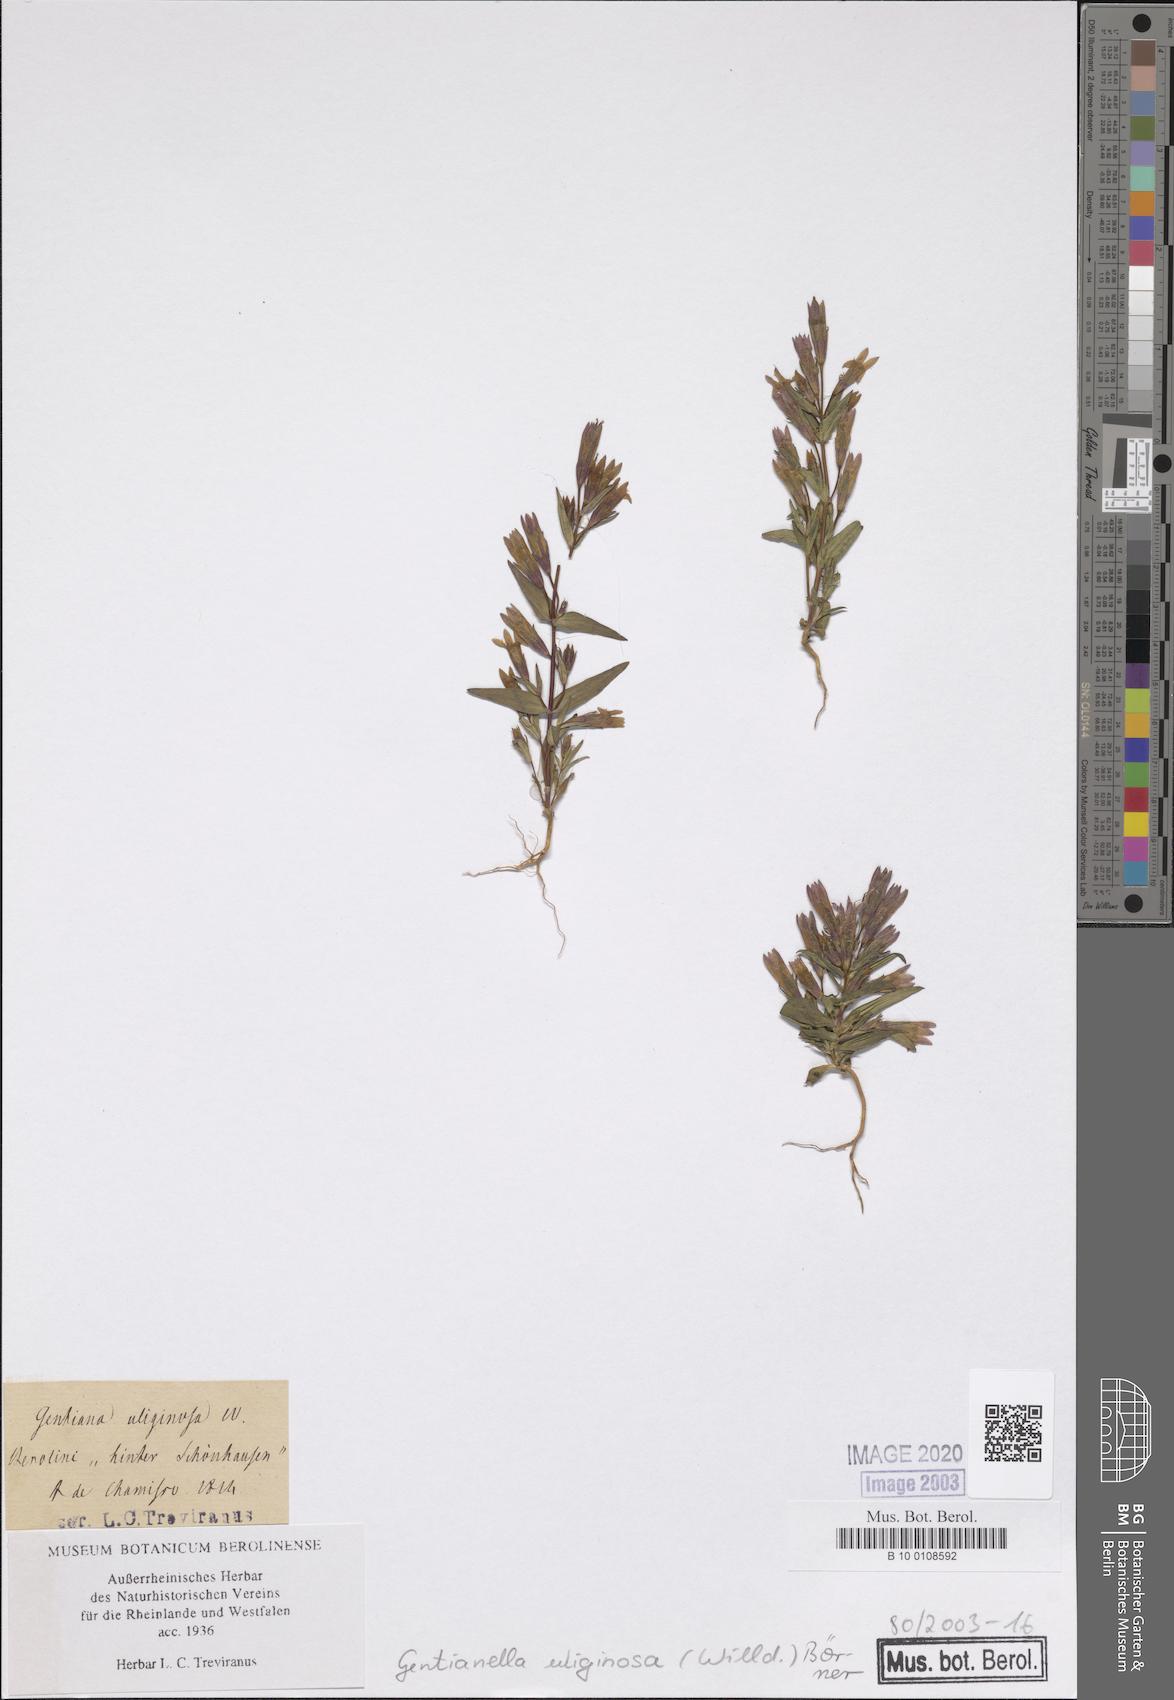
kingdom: Plantae
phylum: Tracheophyta
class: Magnoliopsida
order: Gentianales
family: Gentianaceae
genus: Gentianella
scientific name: Gentianella uliginosa
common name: Dune gentian
